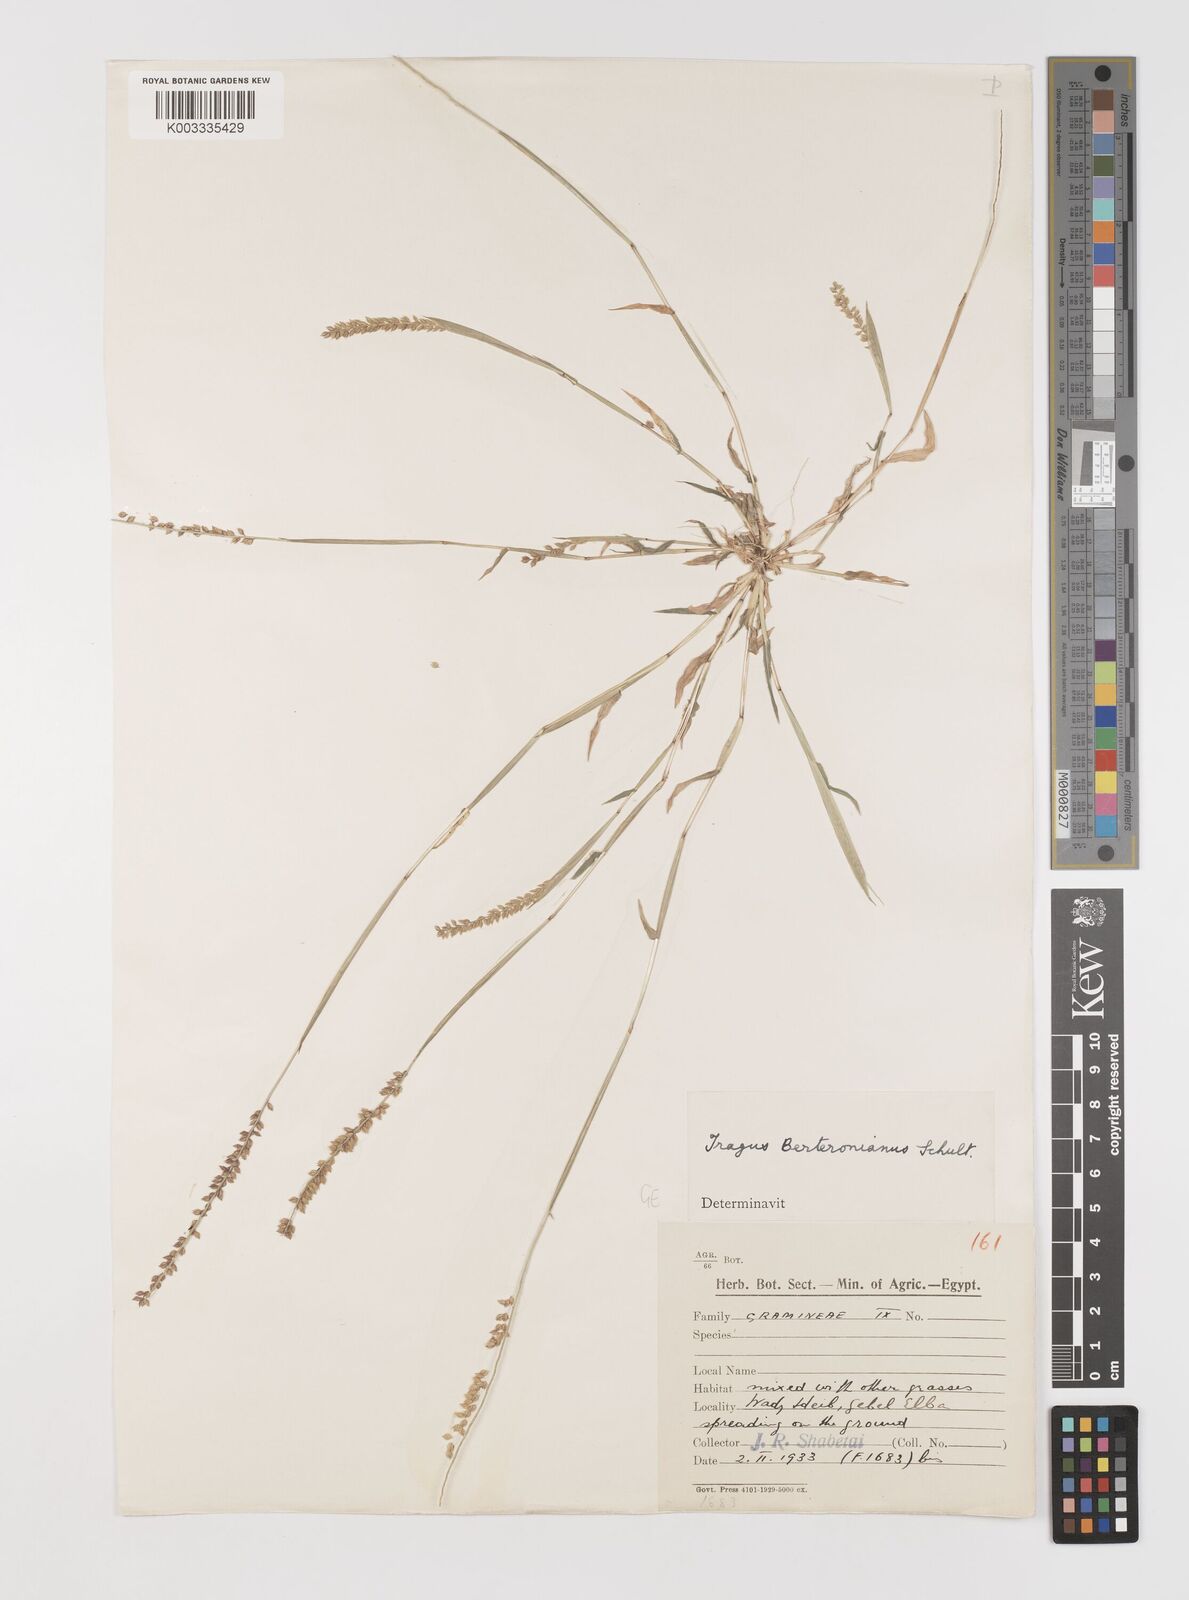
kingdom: Plantae
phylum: Tracheophyta
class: Liliopsida
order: Poales
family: Poaceae
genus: Tragus
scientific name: Tragus berteronianus
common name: African bur-grass
